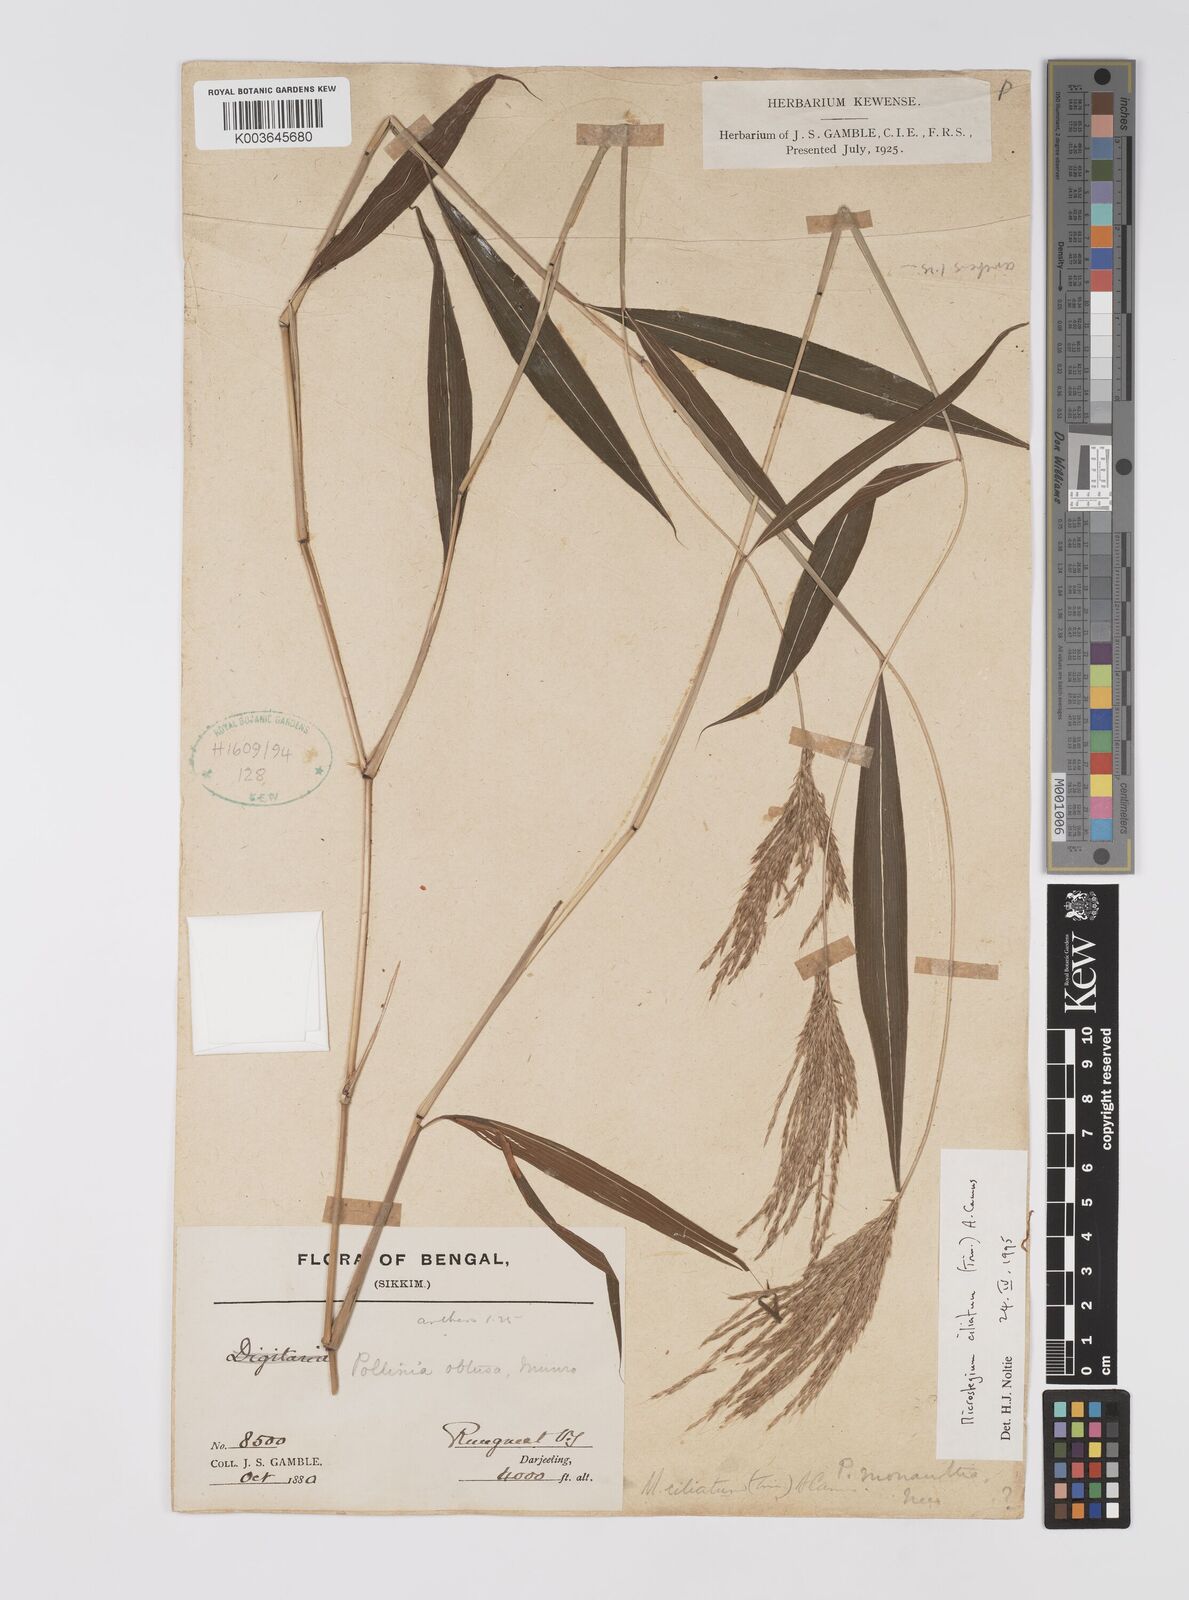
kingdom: Plantae
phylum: Tracheophyta
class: Liliopsida
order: Poales
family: Poaceae
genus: Microstegium
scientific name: Microstegium fasciculatum
